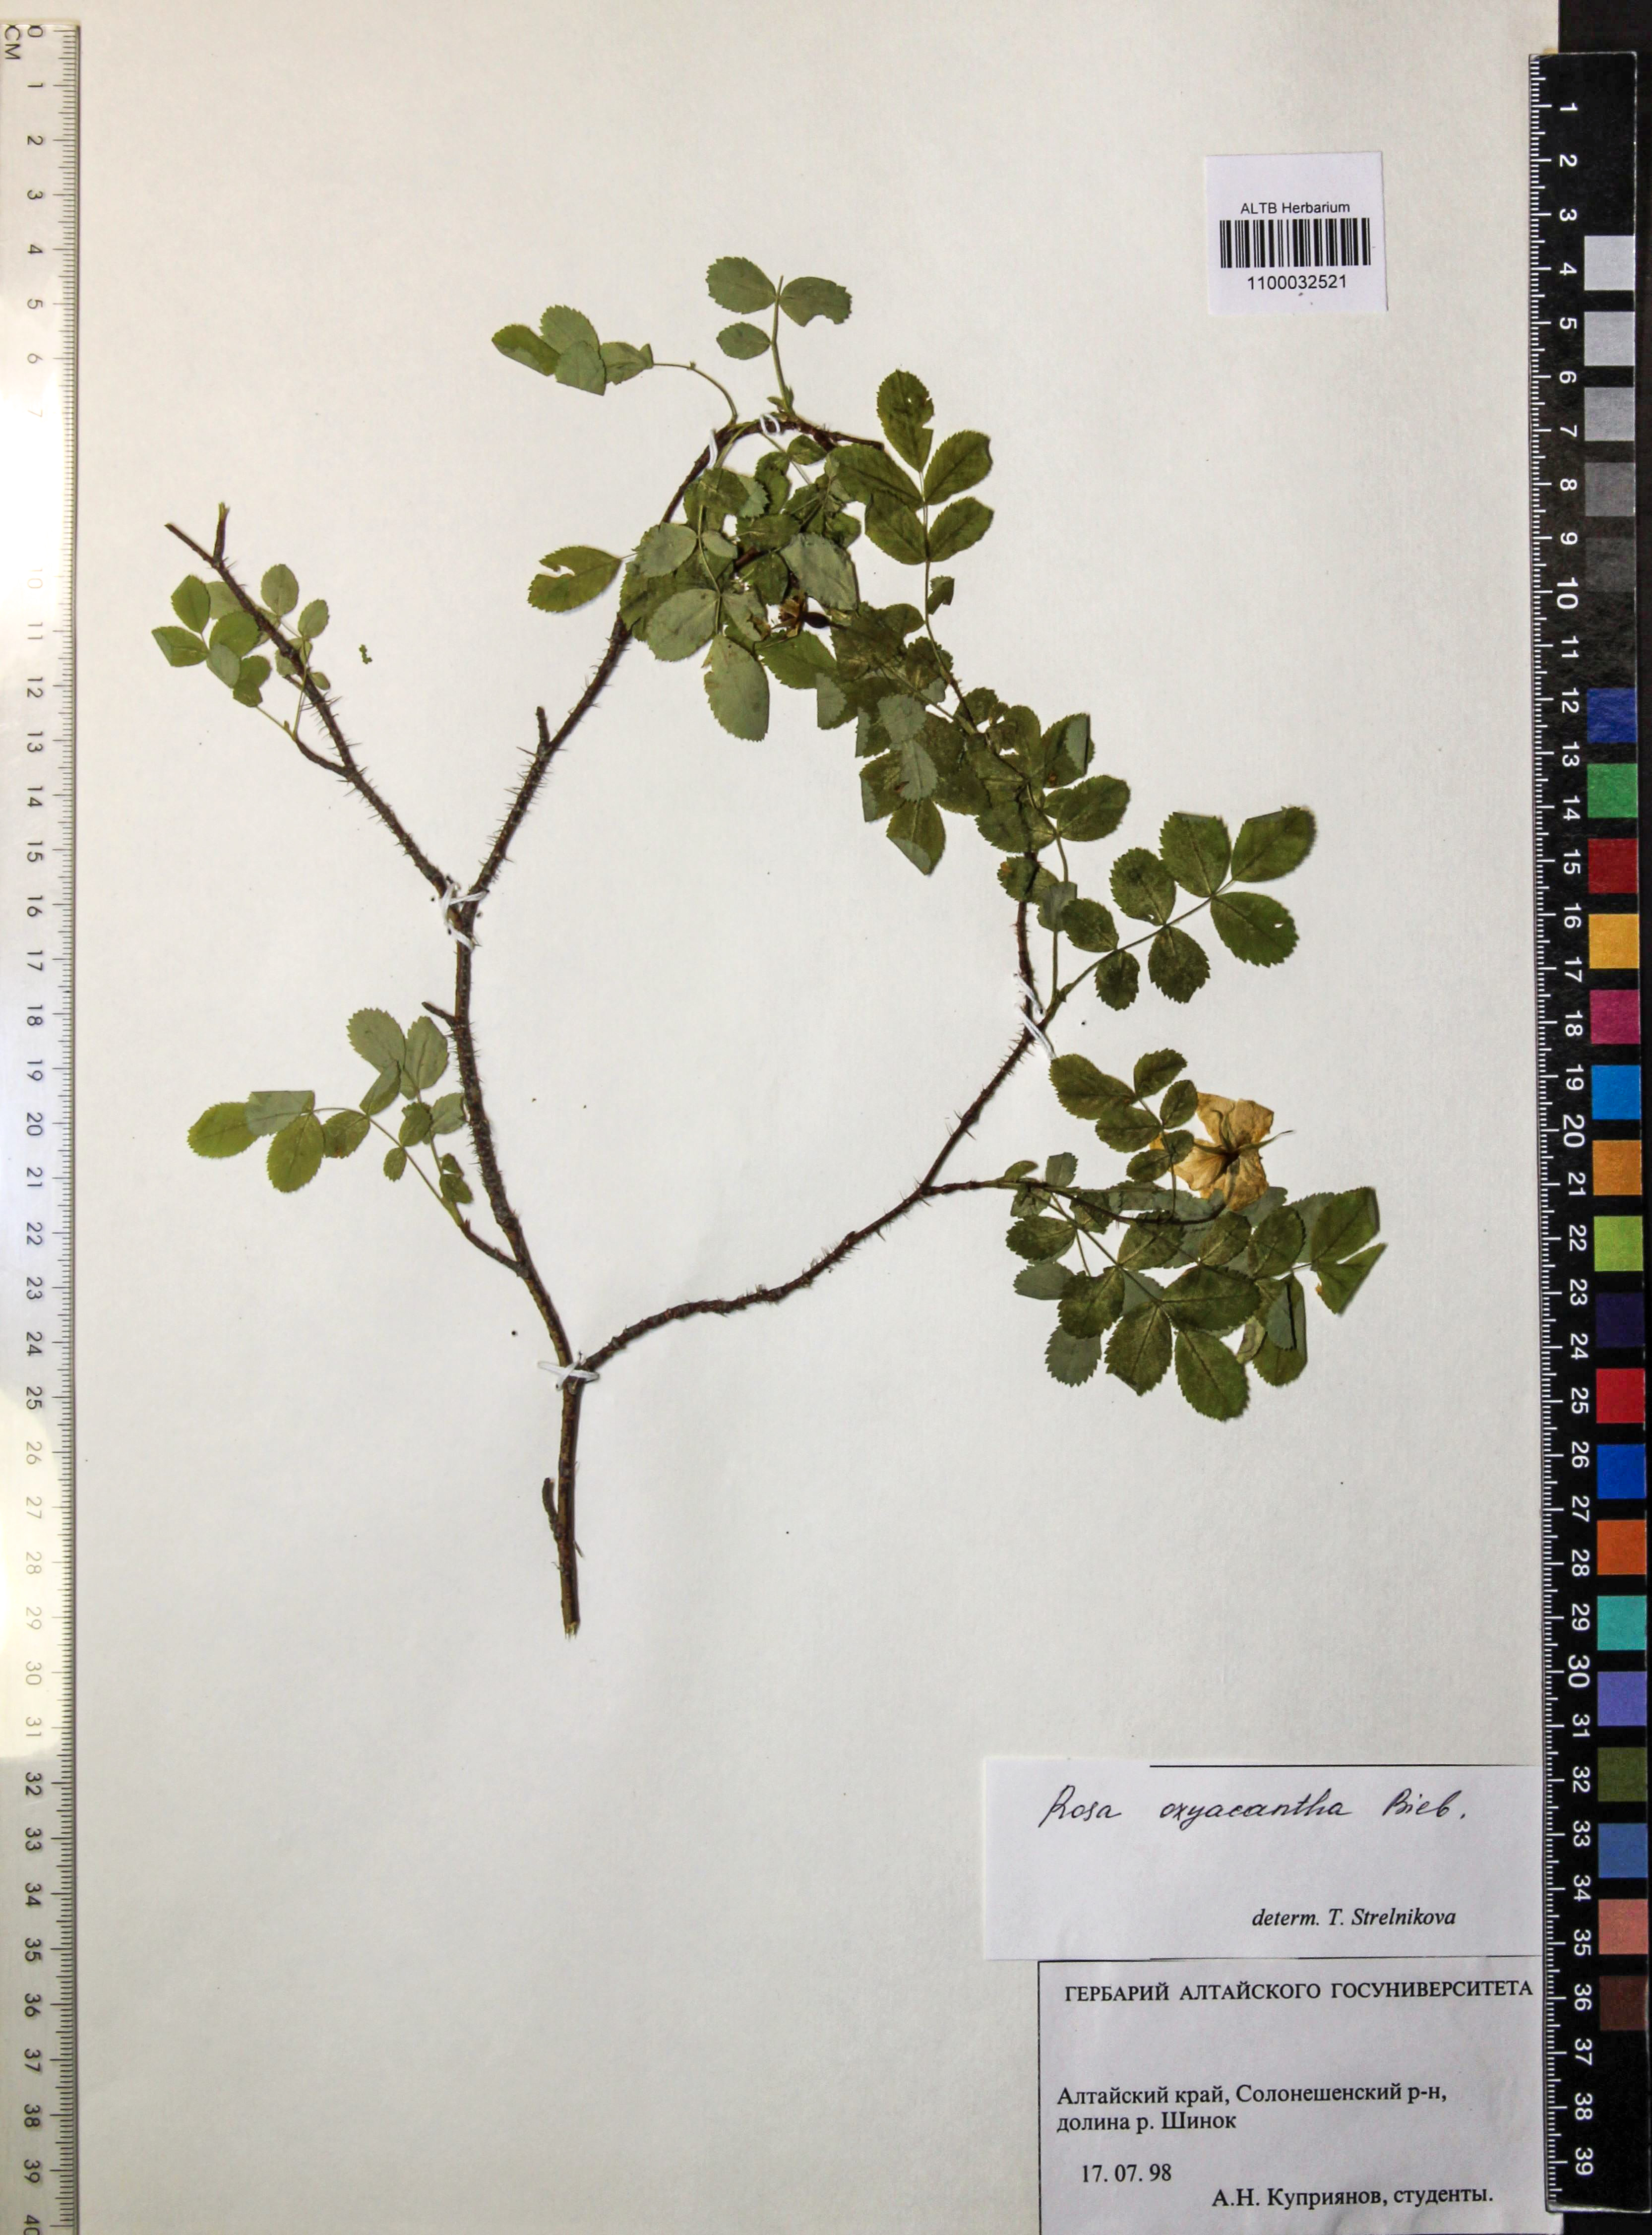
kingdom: Plantae
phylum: Tracheophyta
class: Magnoliopsida
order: Rosales
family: Rosaceae
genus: Rosa
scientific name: Rosa oxyacantha
